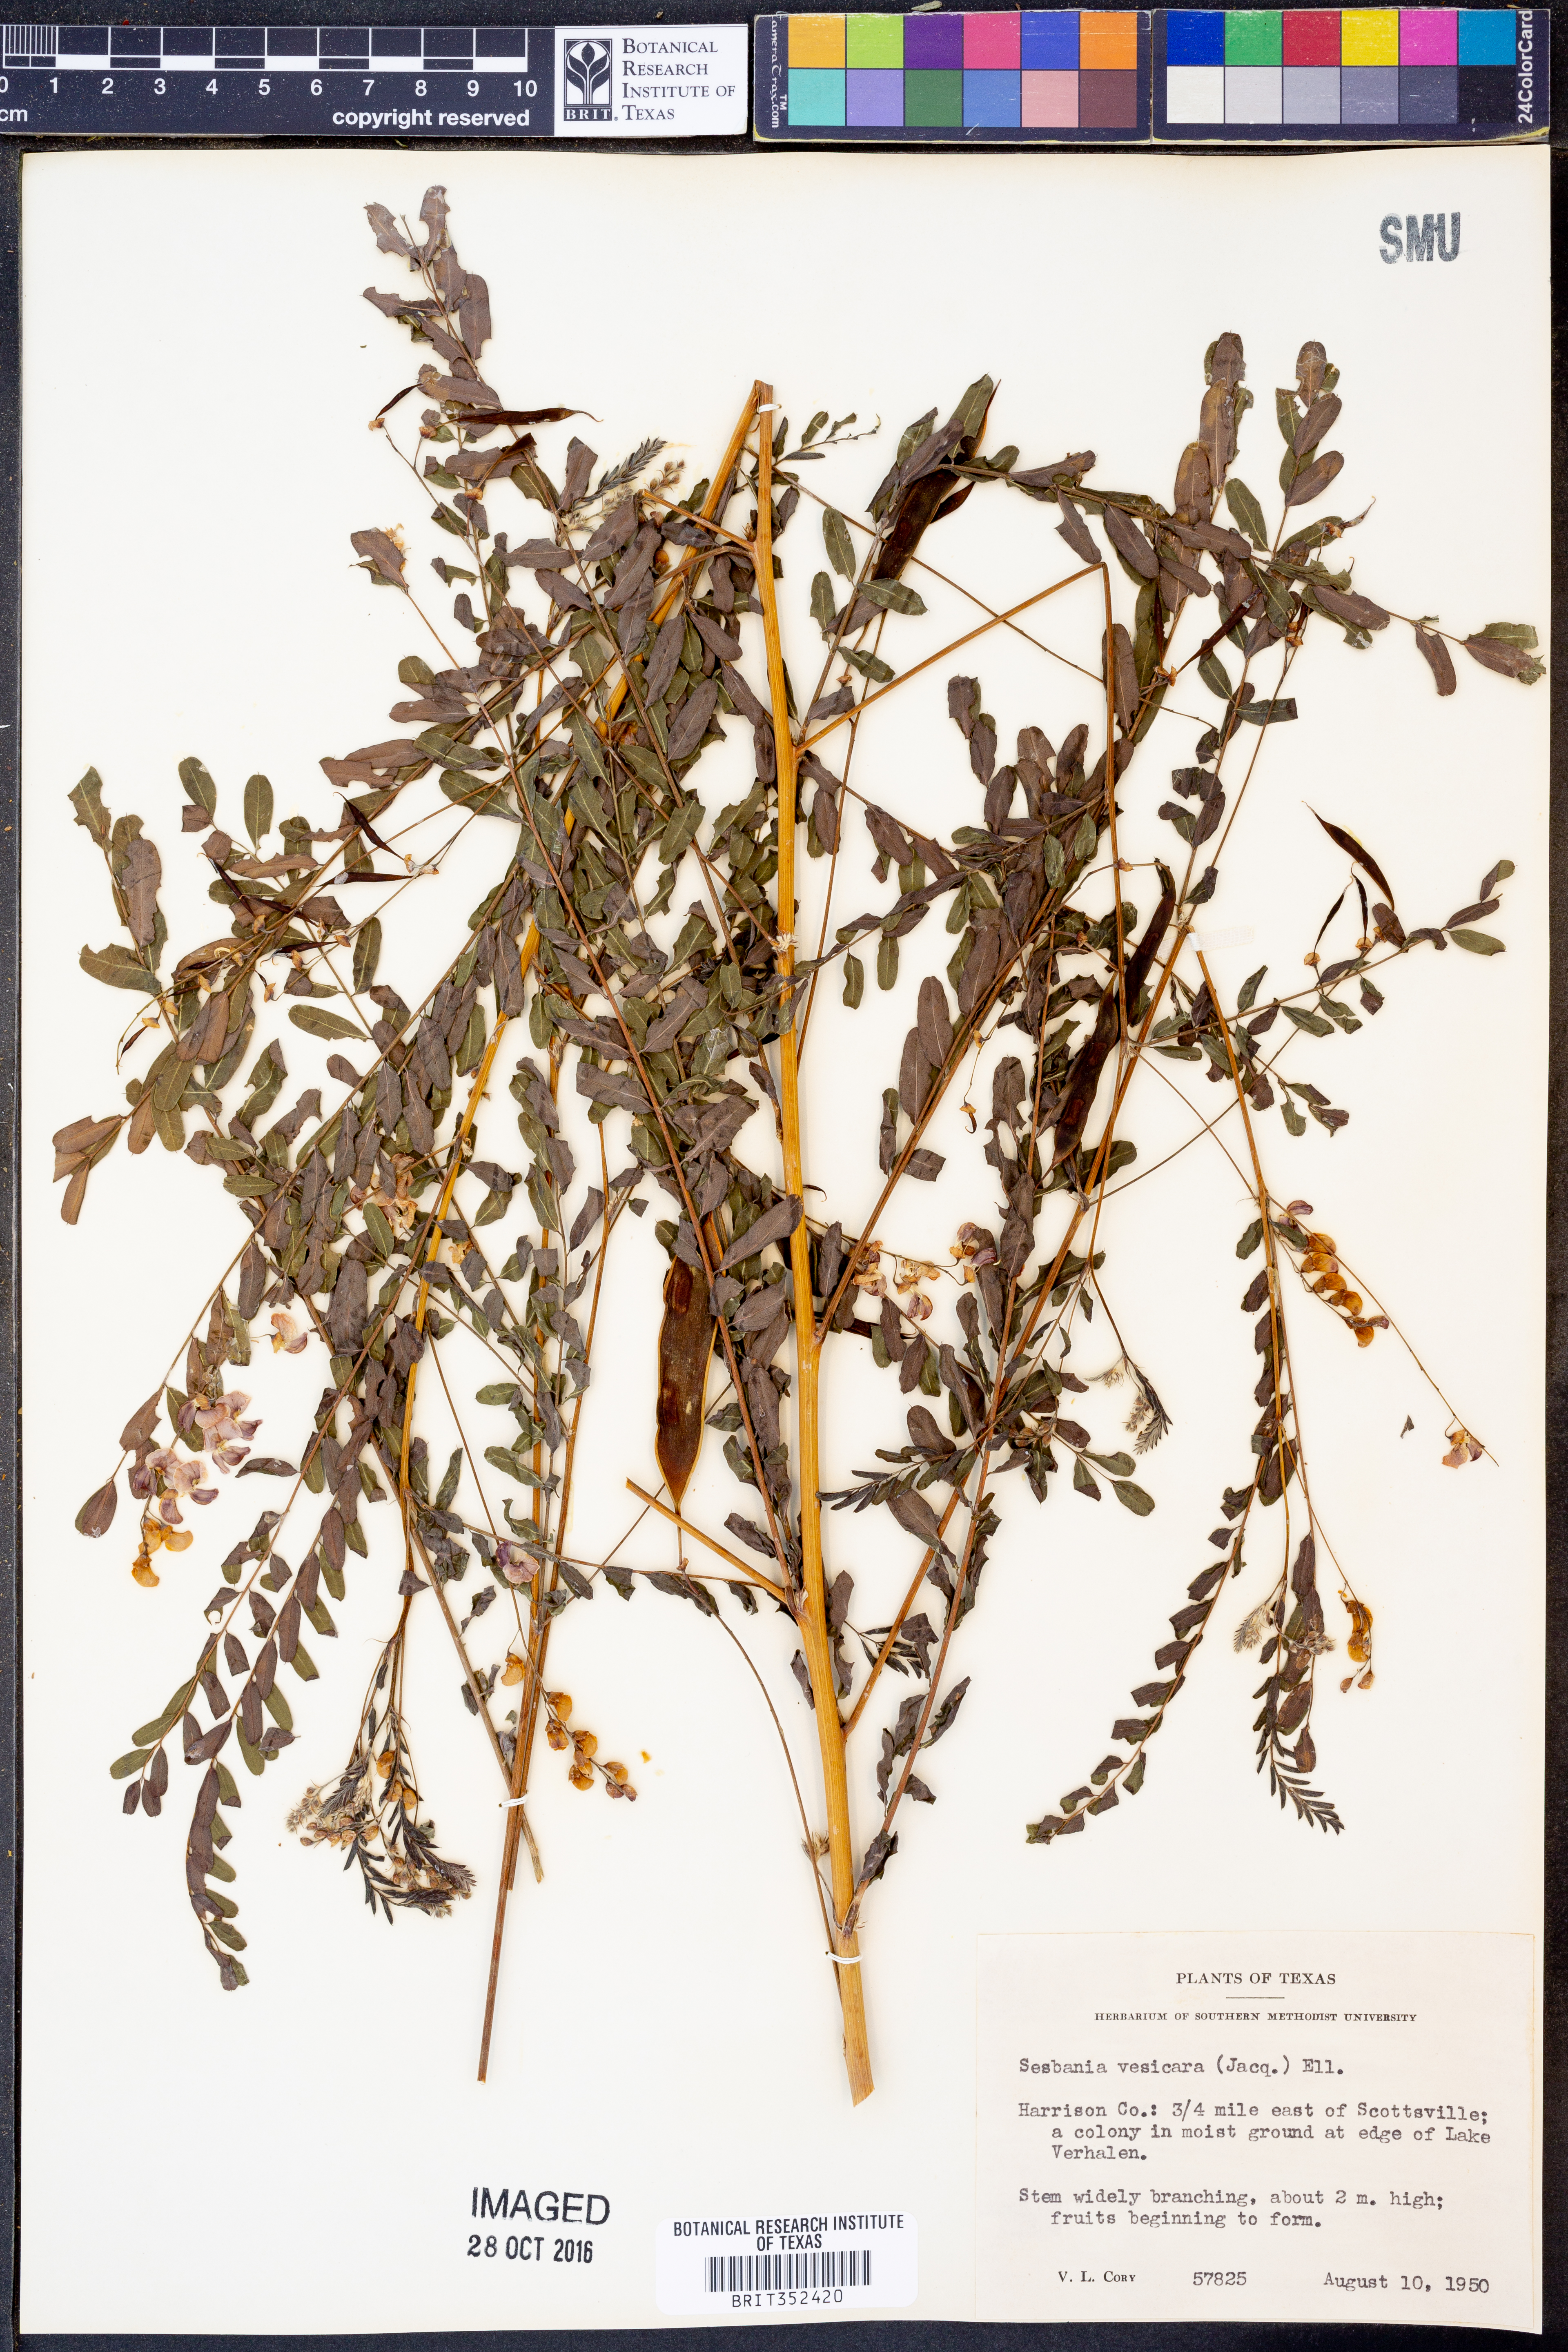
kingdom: Plantae
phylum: Tracheophyta
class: Magnoliopsida
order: Fabales
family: Fabaceae
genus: Sesbania
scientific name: Sesbania vesicaria
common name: Bagpod
